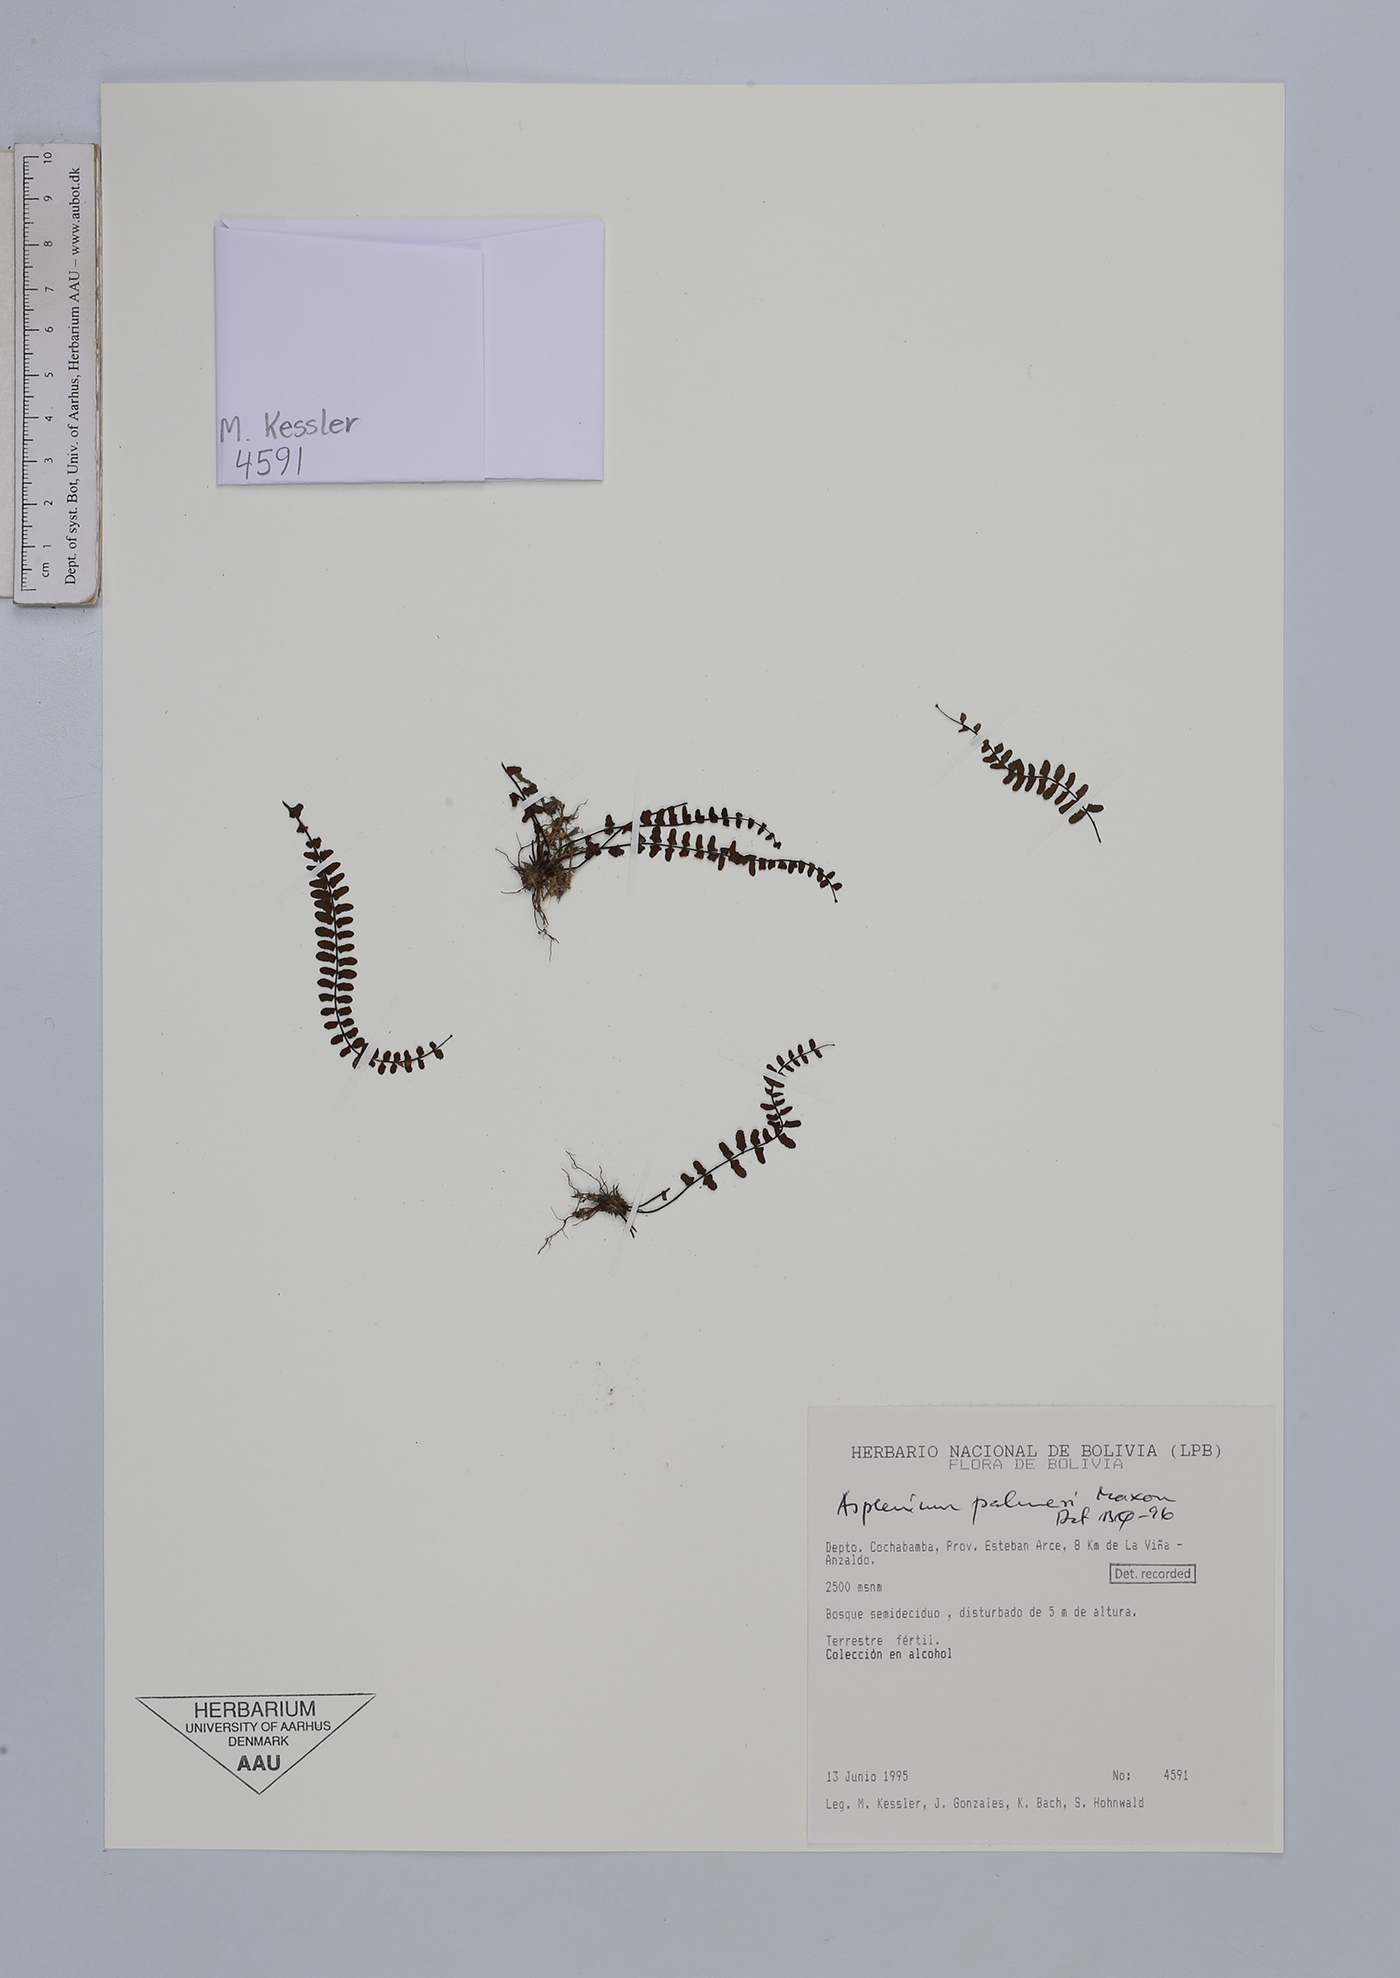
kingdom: Plantae
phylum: Tracheophyta
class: Polypodiopsida
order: Polypodiales
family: Aspleniaceae
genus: Asplenium
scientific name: Asplenium palmeri
